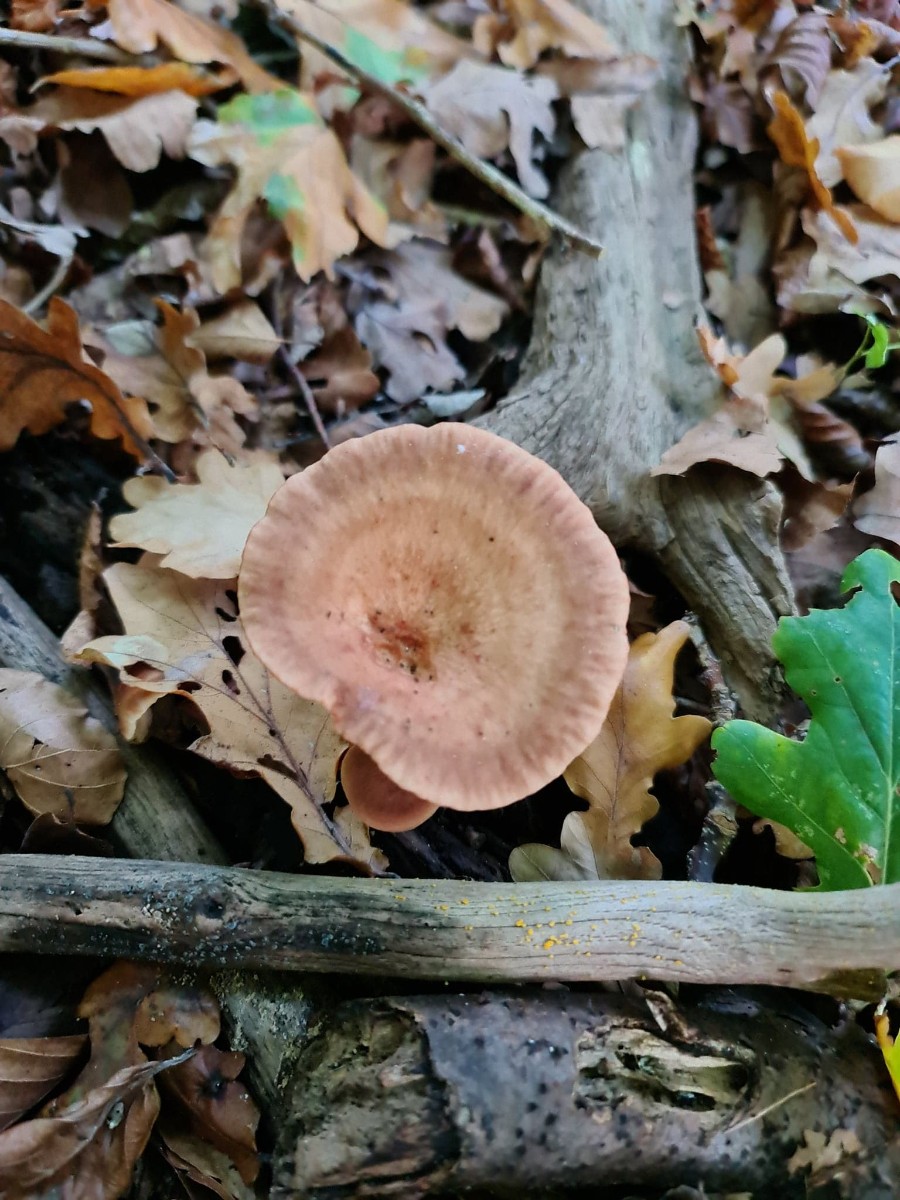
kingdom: Fungi
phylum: Basidiomycota
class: Agaricomycetes
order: Russulales
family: Russulaceae
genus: Lactarius
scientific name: Lactarius quietus
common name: ege-mælkehat
